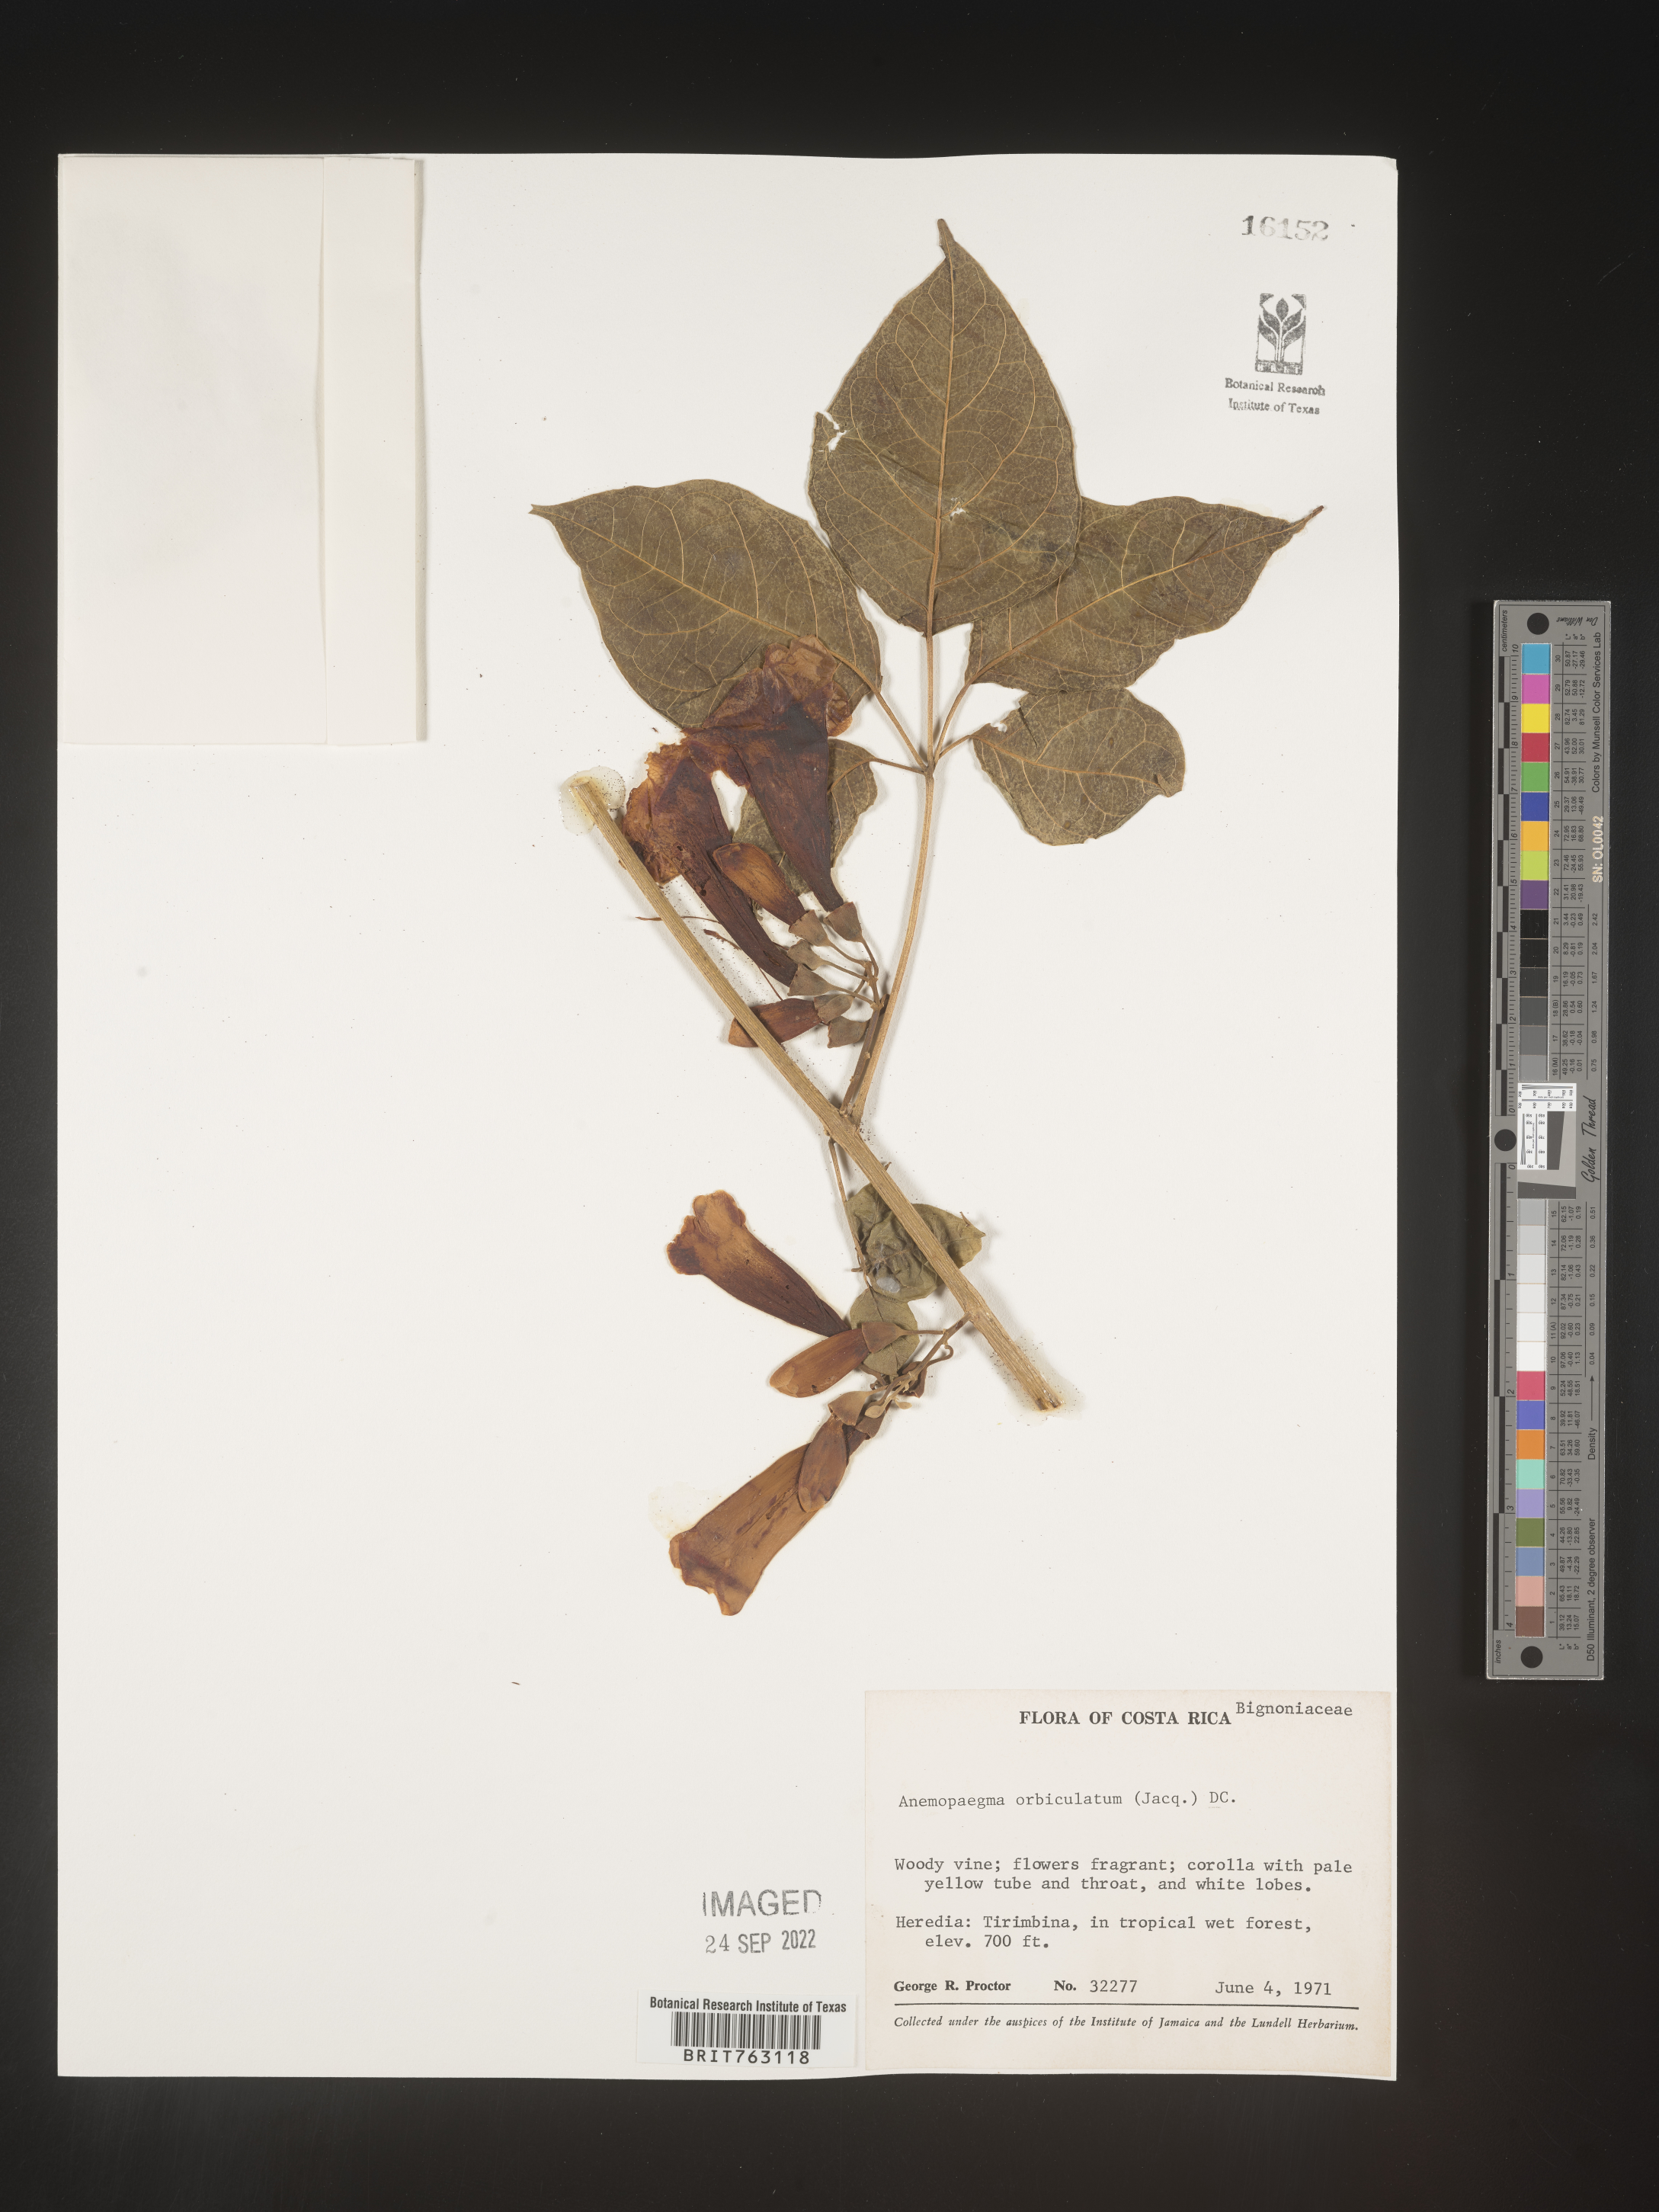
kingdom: Plantae
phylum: Tracheophyta
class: Magnoliopsida
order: Lamiales
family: Bignoniaceae
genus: Anemopaegma
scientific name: Anemopaegma
